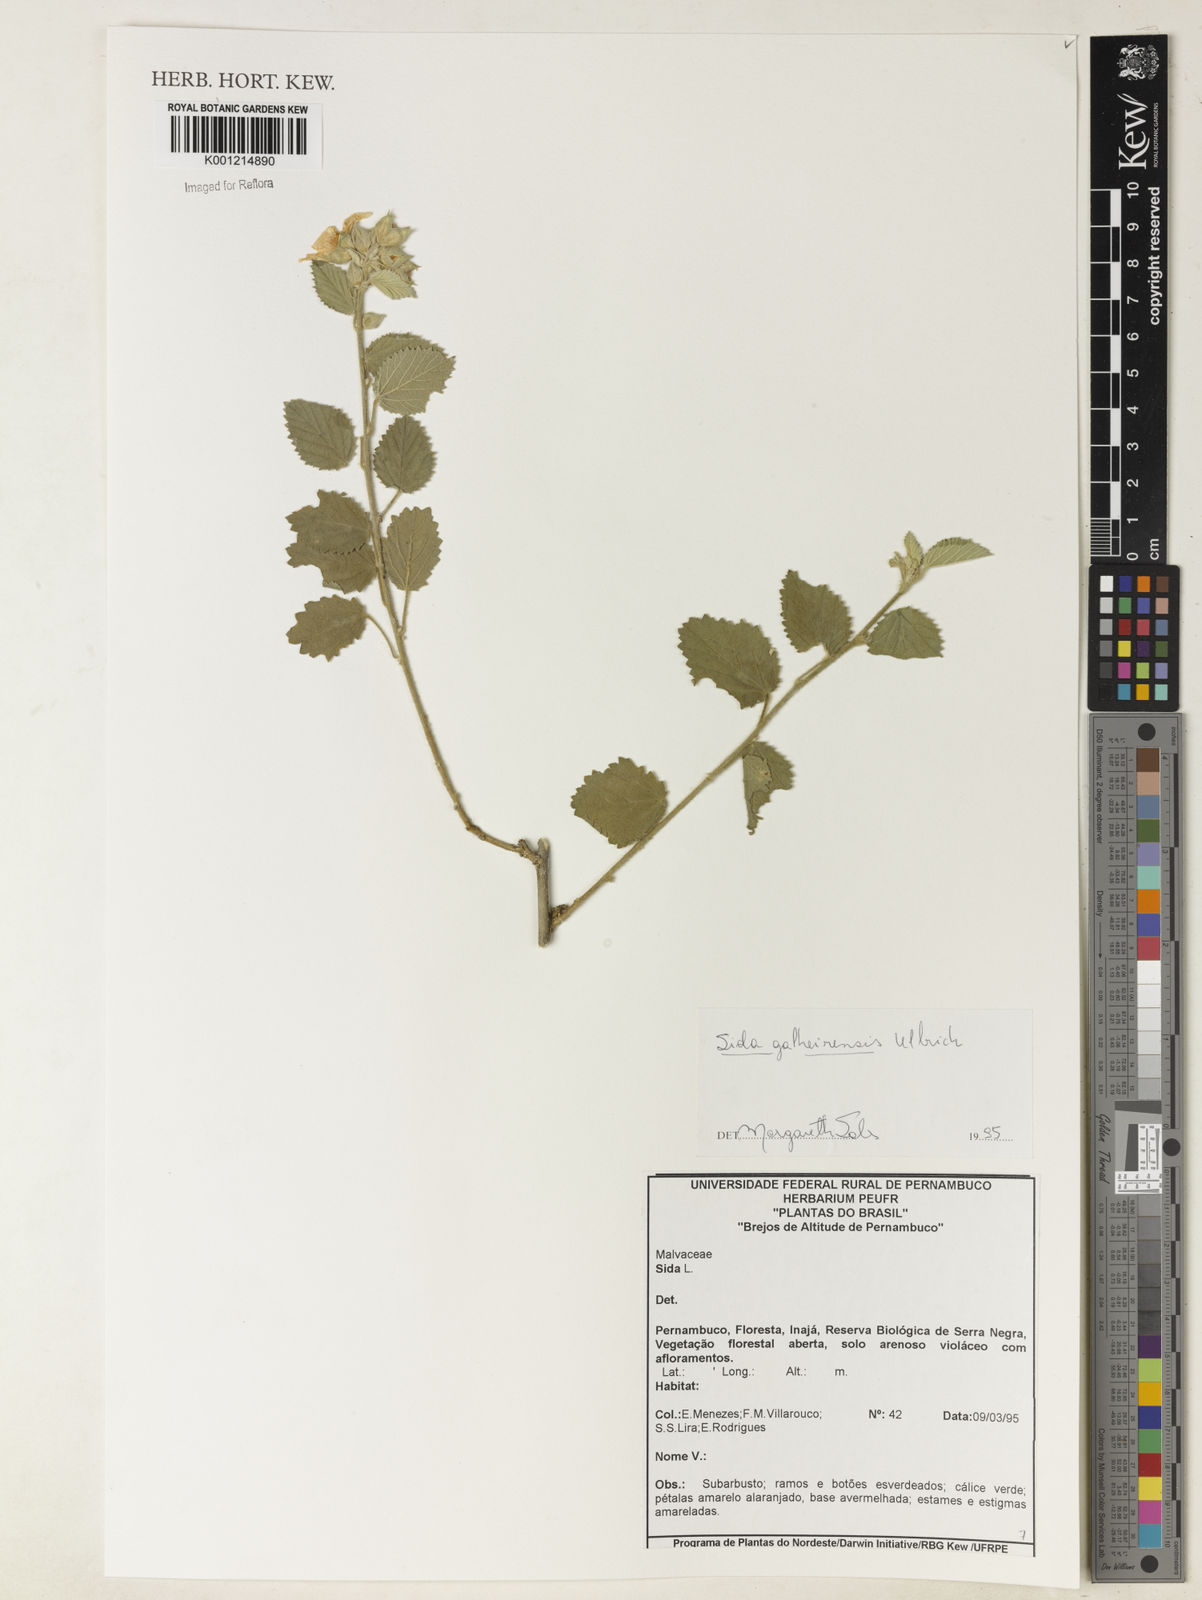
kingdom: Plantae
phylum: Tracheophyta
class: Magnoliopsida
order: Malvales
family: Malvaceae
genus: Sida
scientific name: Sida galheirensis
